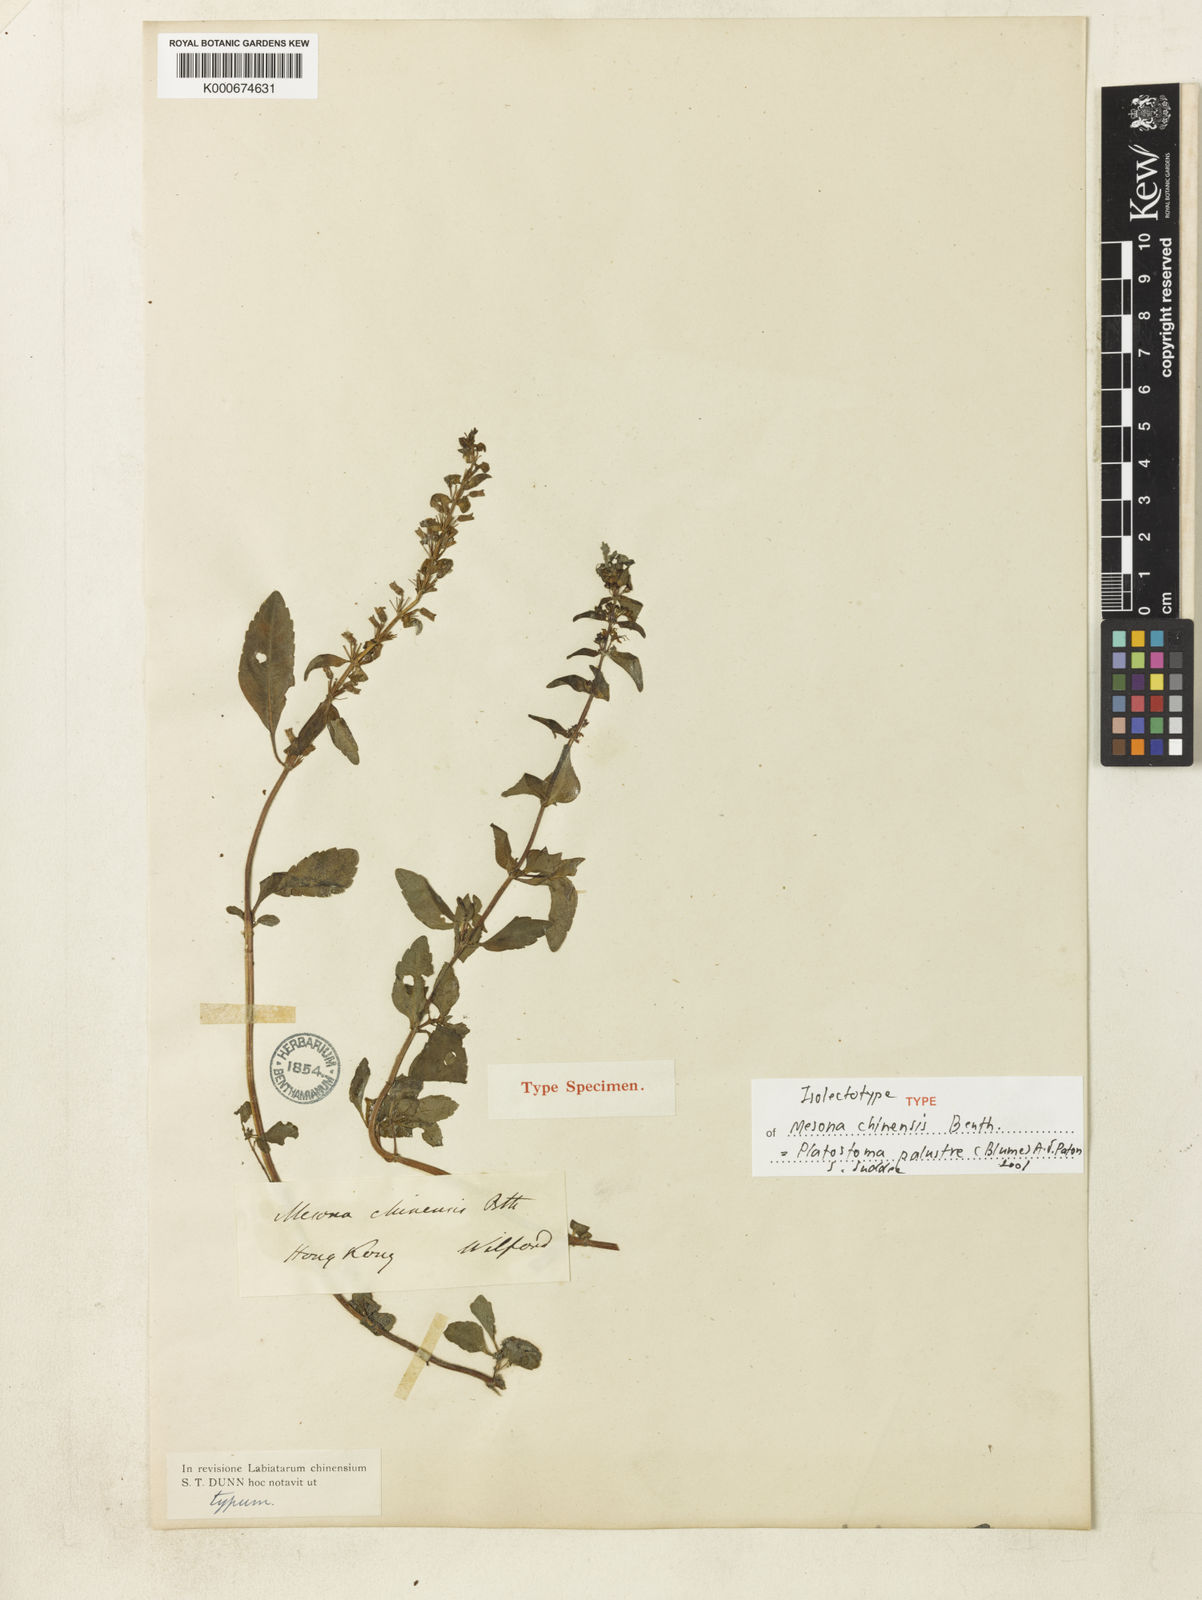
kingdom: Plantae
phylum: Tracheophyta
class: Magnoliopsida
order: Lamiales
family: Lamiaceae
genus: Platostoma
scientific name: Platostoma palustre
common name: Black cincau
